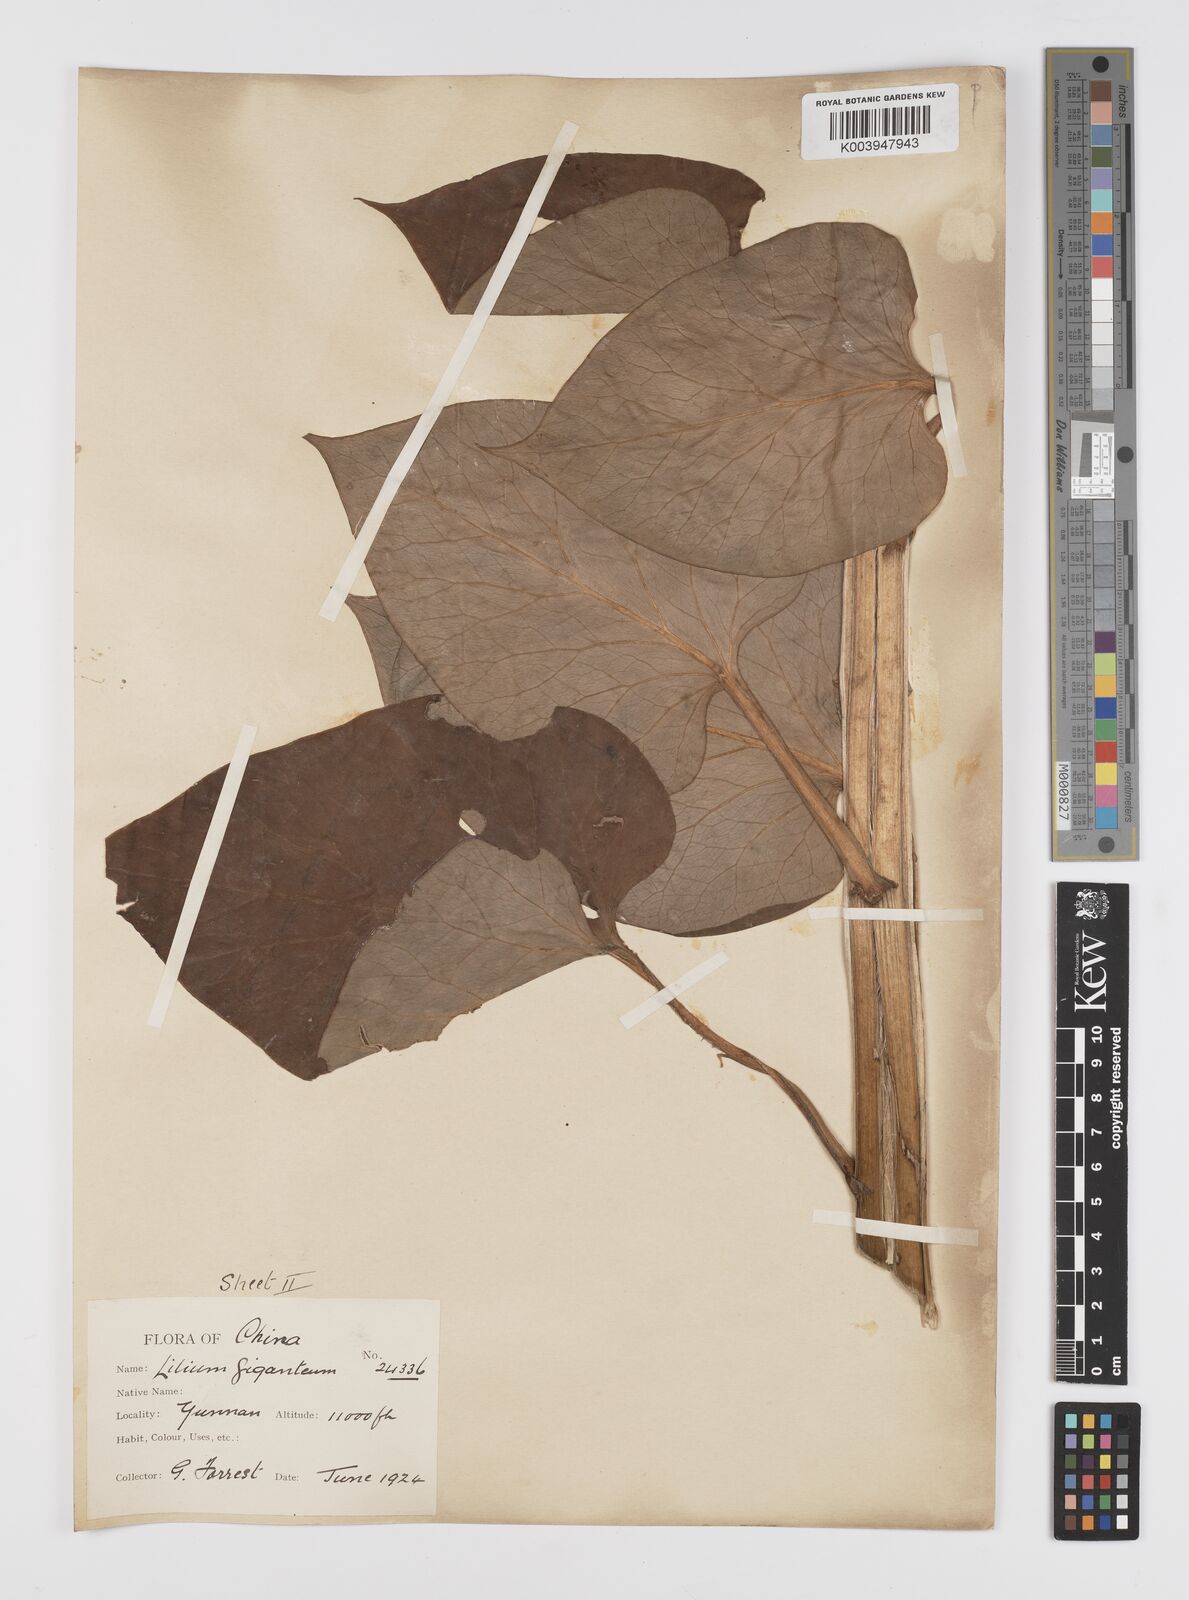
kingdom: Plantae
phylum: Tracheophyta
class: Liliopsida
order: Liliales
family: Liliaceae
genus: Cardiocrinum
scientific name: Cardiocrinum giganteum
